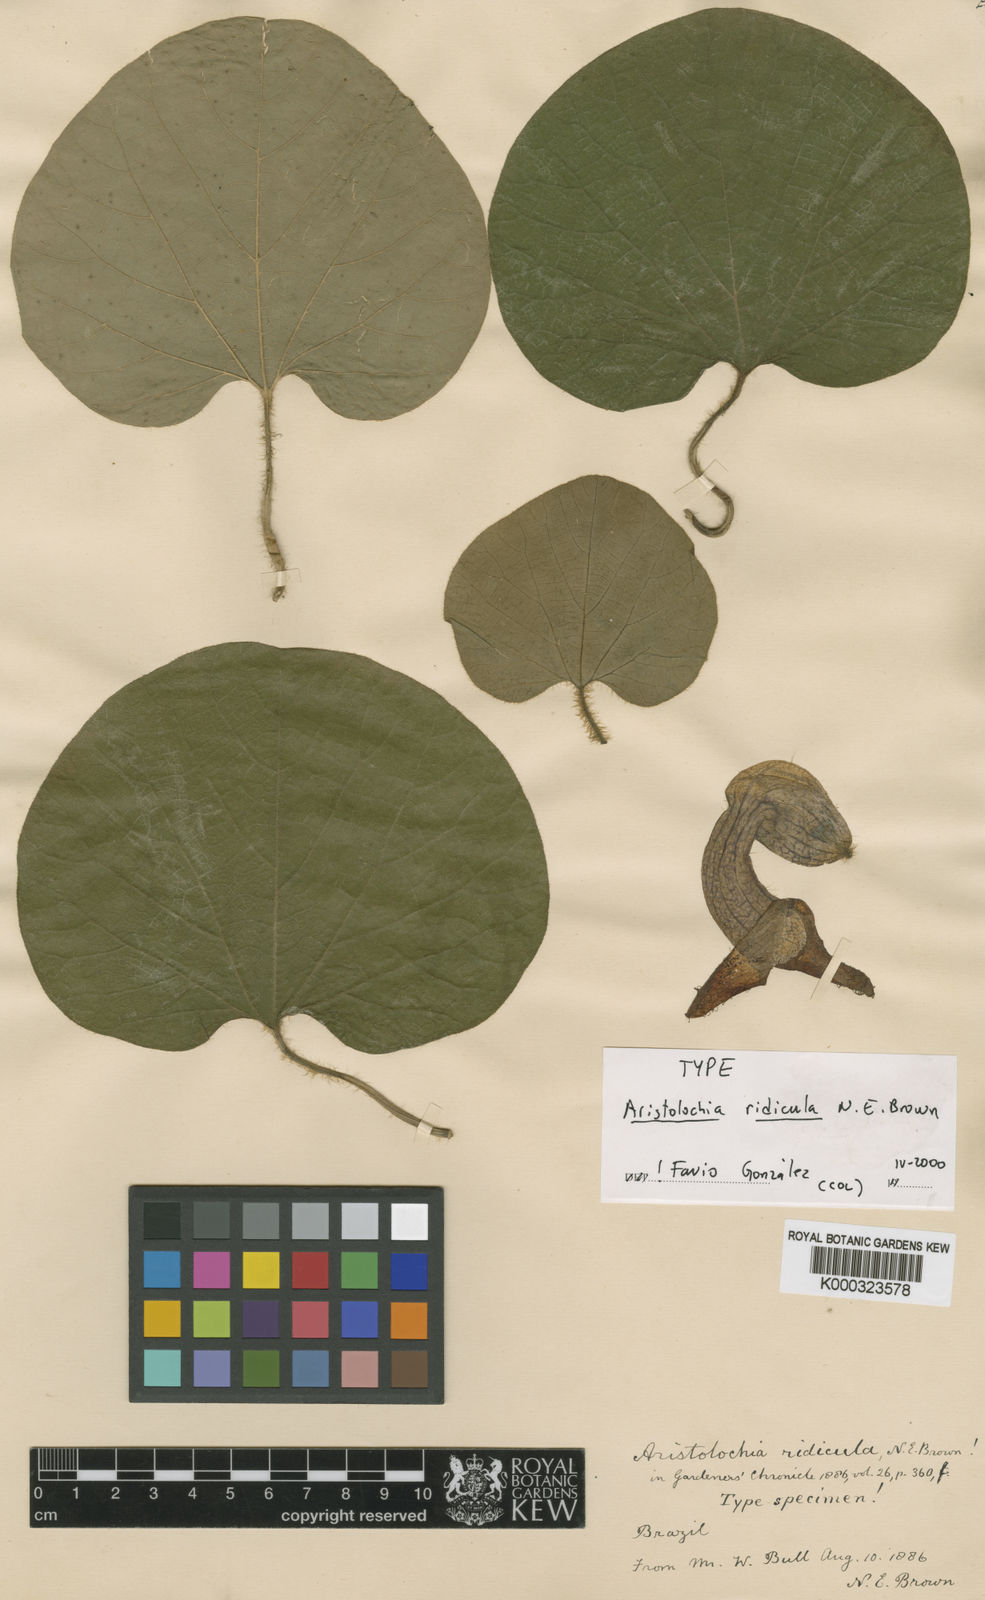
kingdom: Plantae
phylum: Tracheophyta
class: Magnoliopsida
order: Piperales
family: Aristolochiaceae
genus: Aristolochia
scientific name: Aristolochia ridicula
